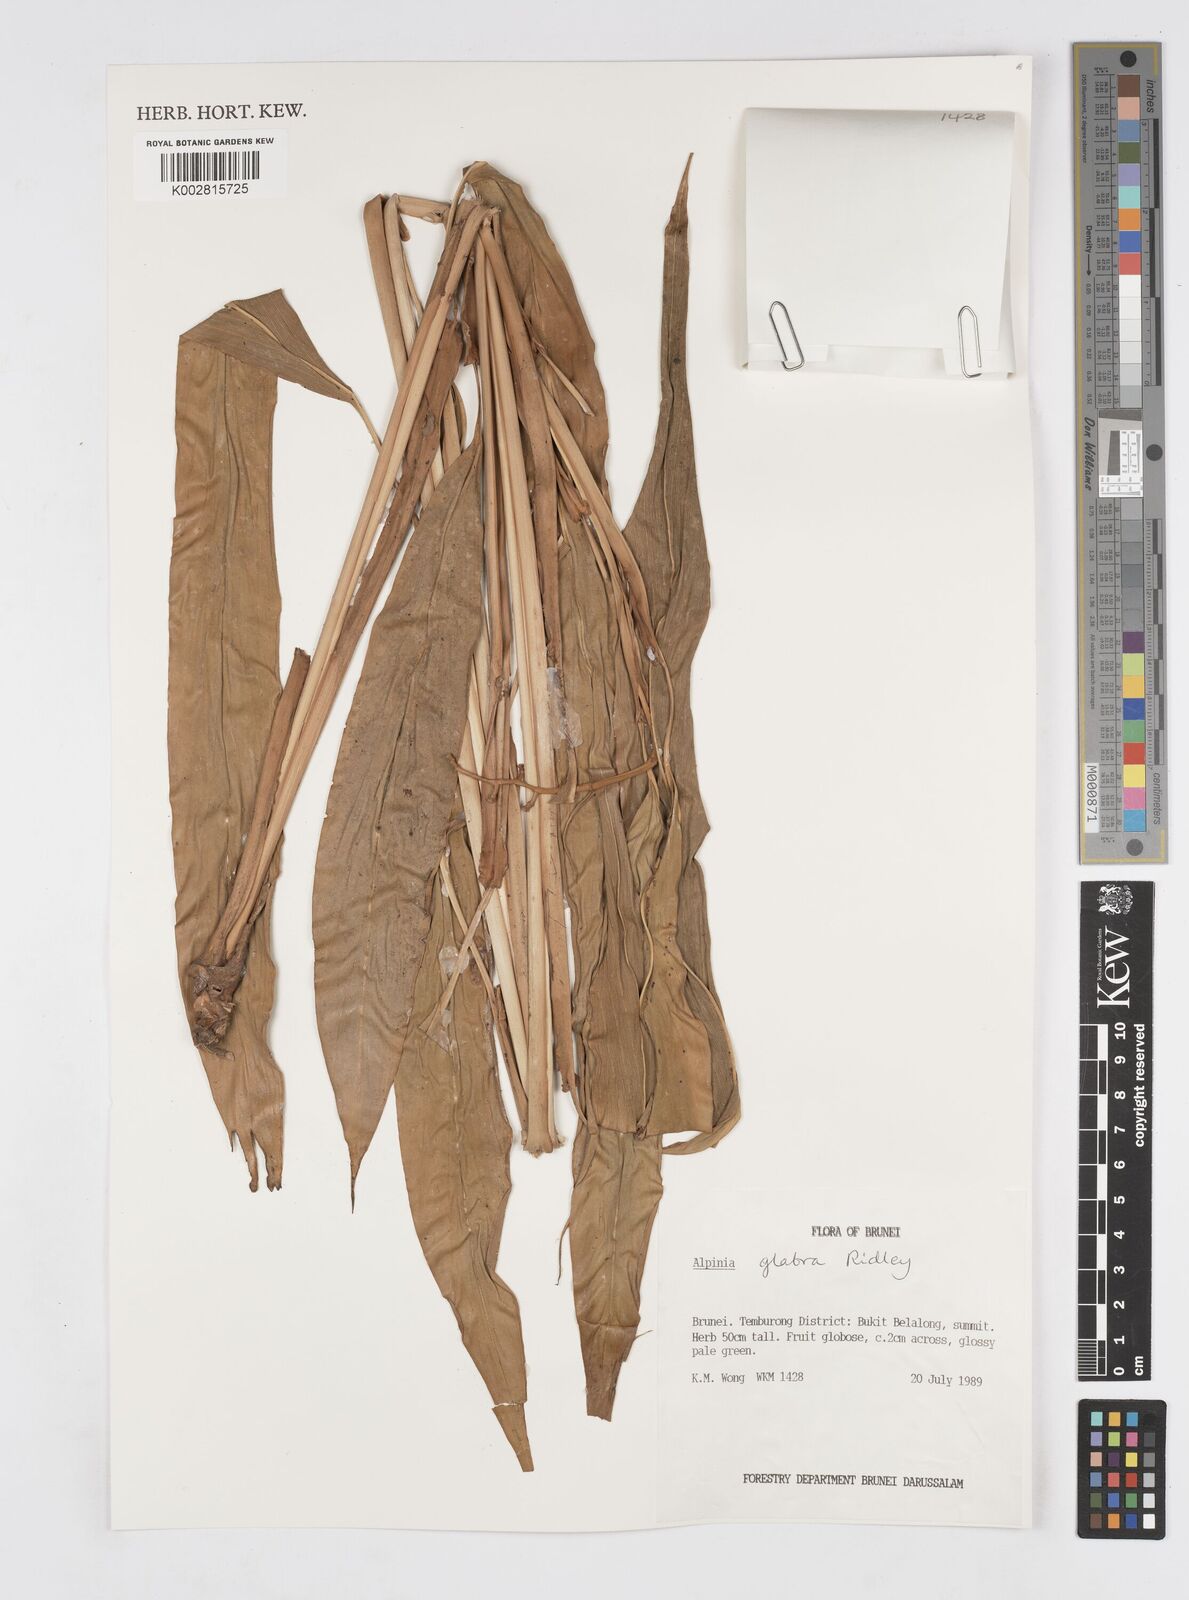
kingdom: Plantae
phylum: Tracheophyta
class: Liliopsida
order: Zingiberales
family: Zingiberaceae
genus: Alpinia
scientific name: Alpinia glabra
